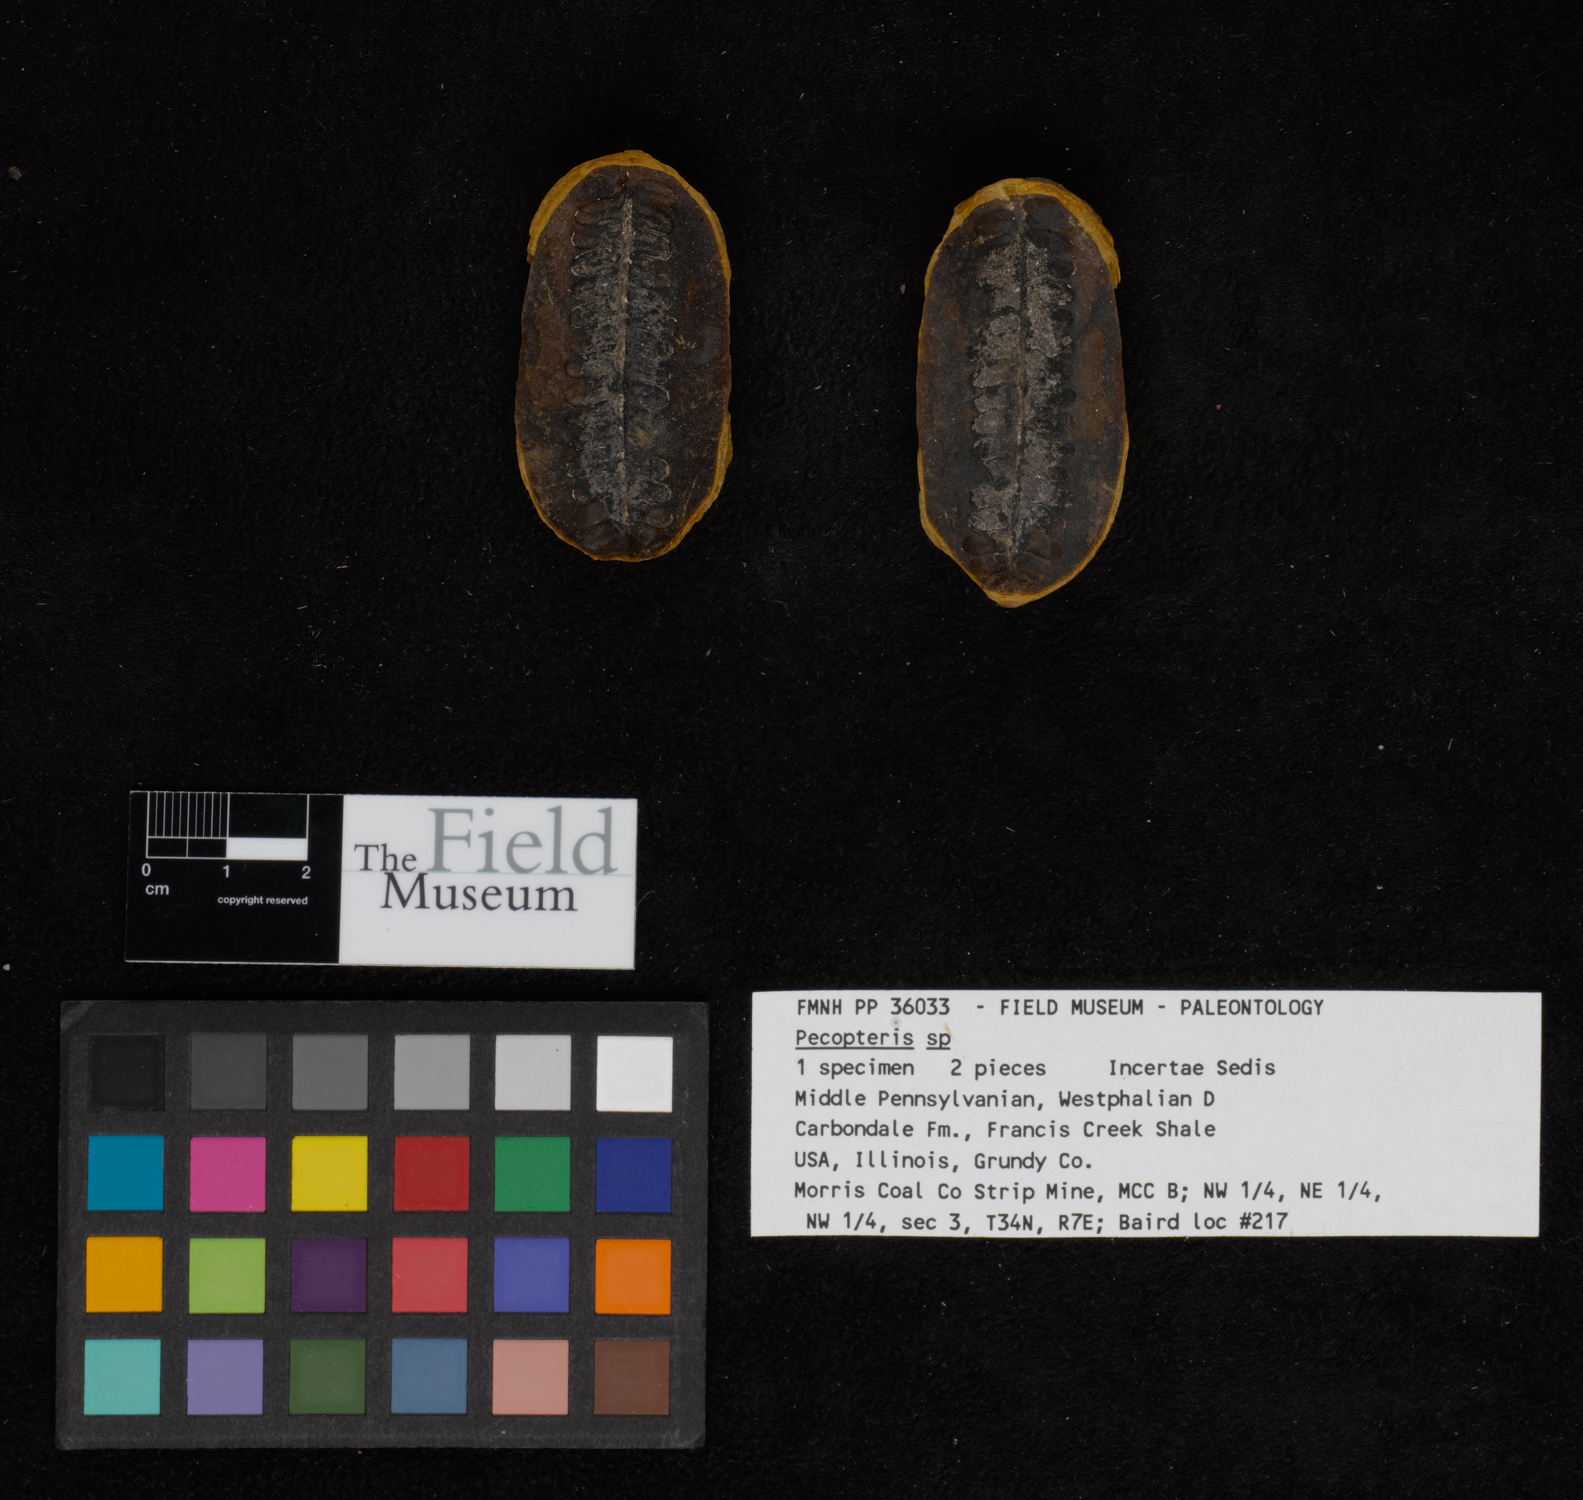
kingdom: Plantae
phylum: Tracheophyta
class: Polypodiopsida
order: Marattiales
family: Asterothecaceae
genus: Pecopteris
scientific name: Pecopteris
